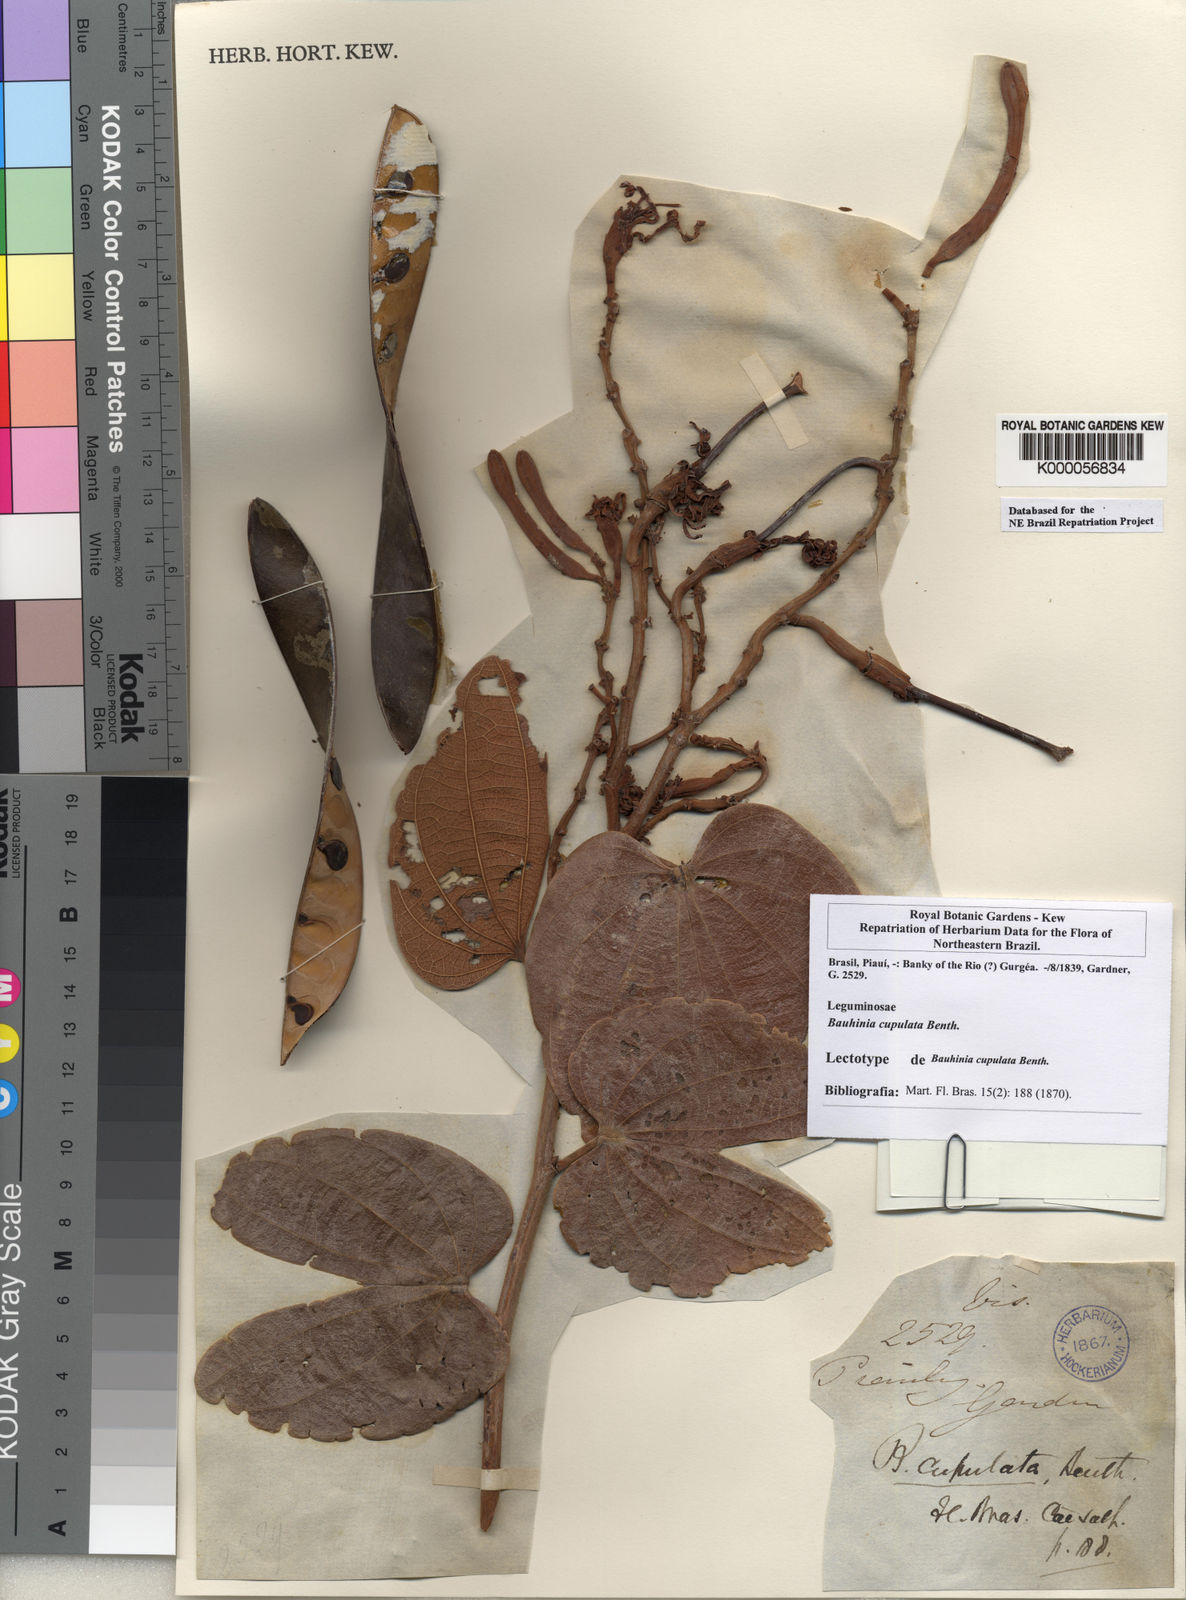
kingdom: Plantae
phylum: Tracheophyta
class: Magnoliopsida
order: Fabales
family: Fabaceae
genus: Bauhinia
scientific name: Bauhinia cupulata
